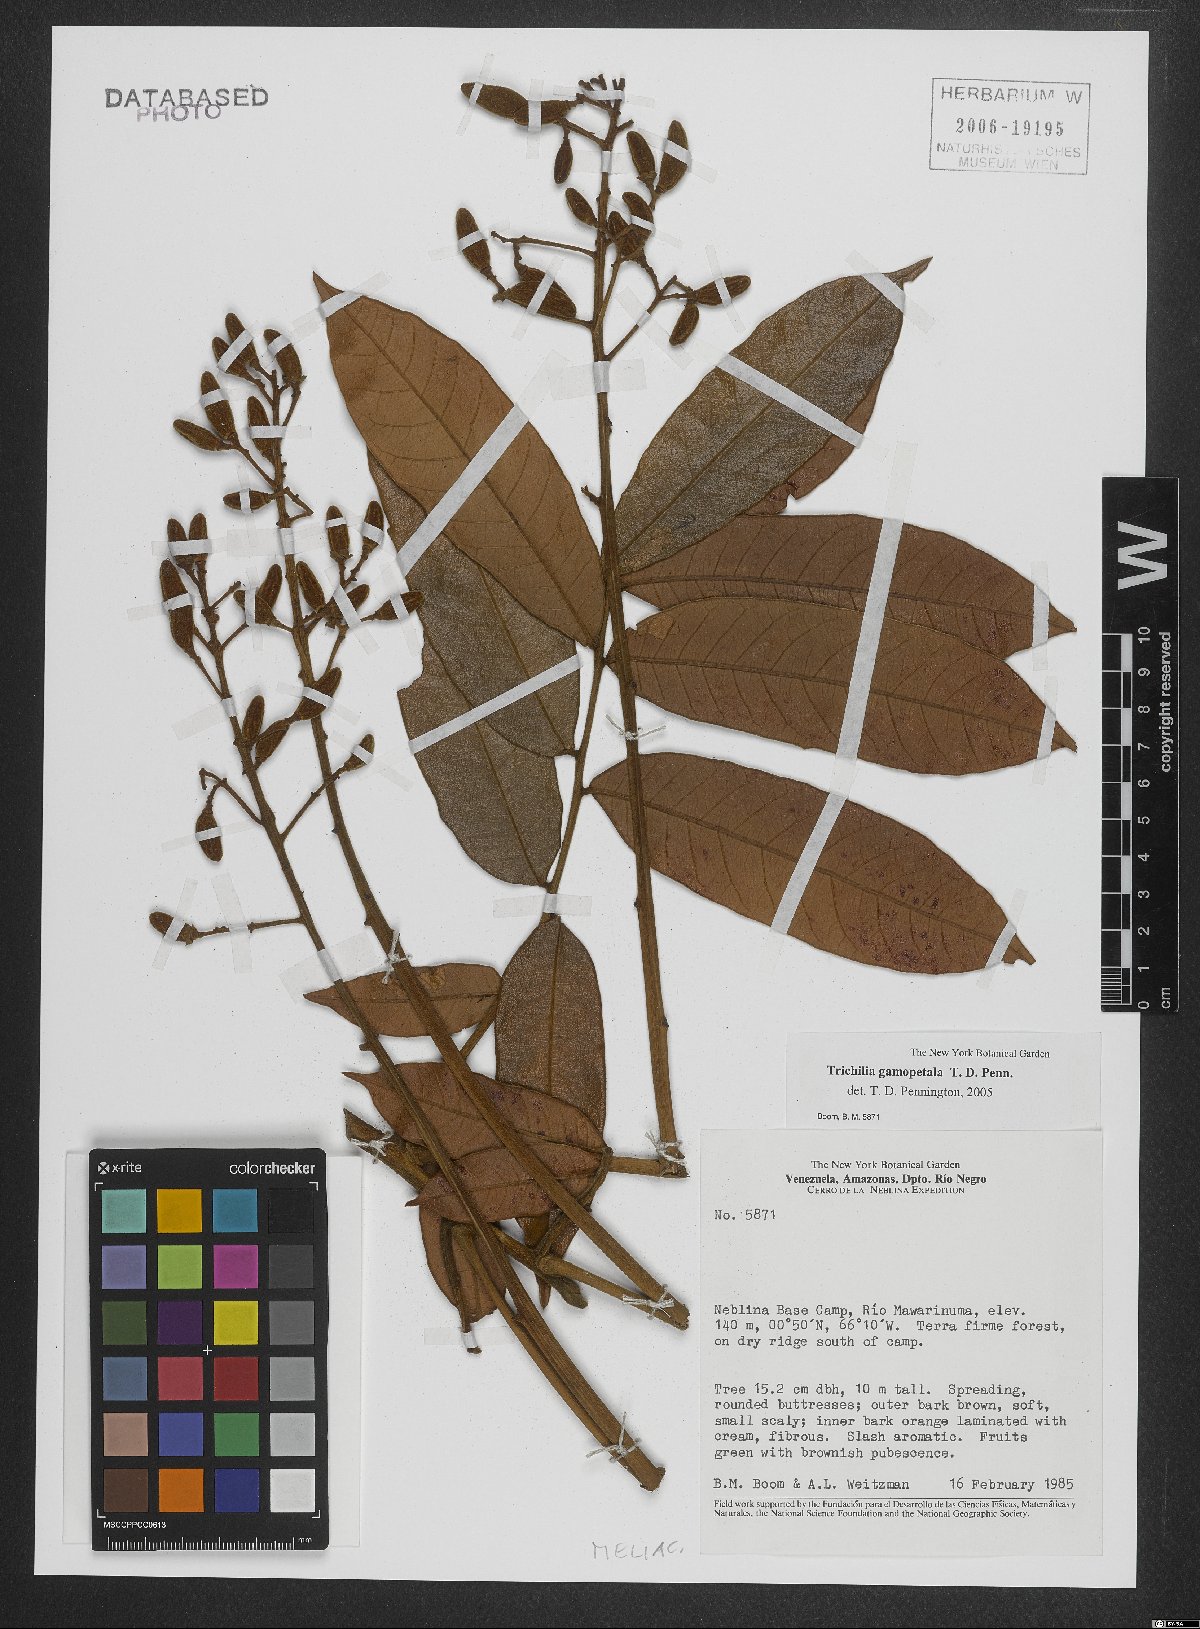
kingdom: Plantae
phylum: Tracheophyta
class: Magnoliopsida
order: Sapindales
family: Meliaceae
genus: Trichilia
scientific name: Trichilia gamopetala
